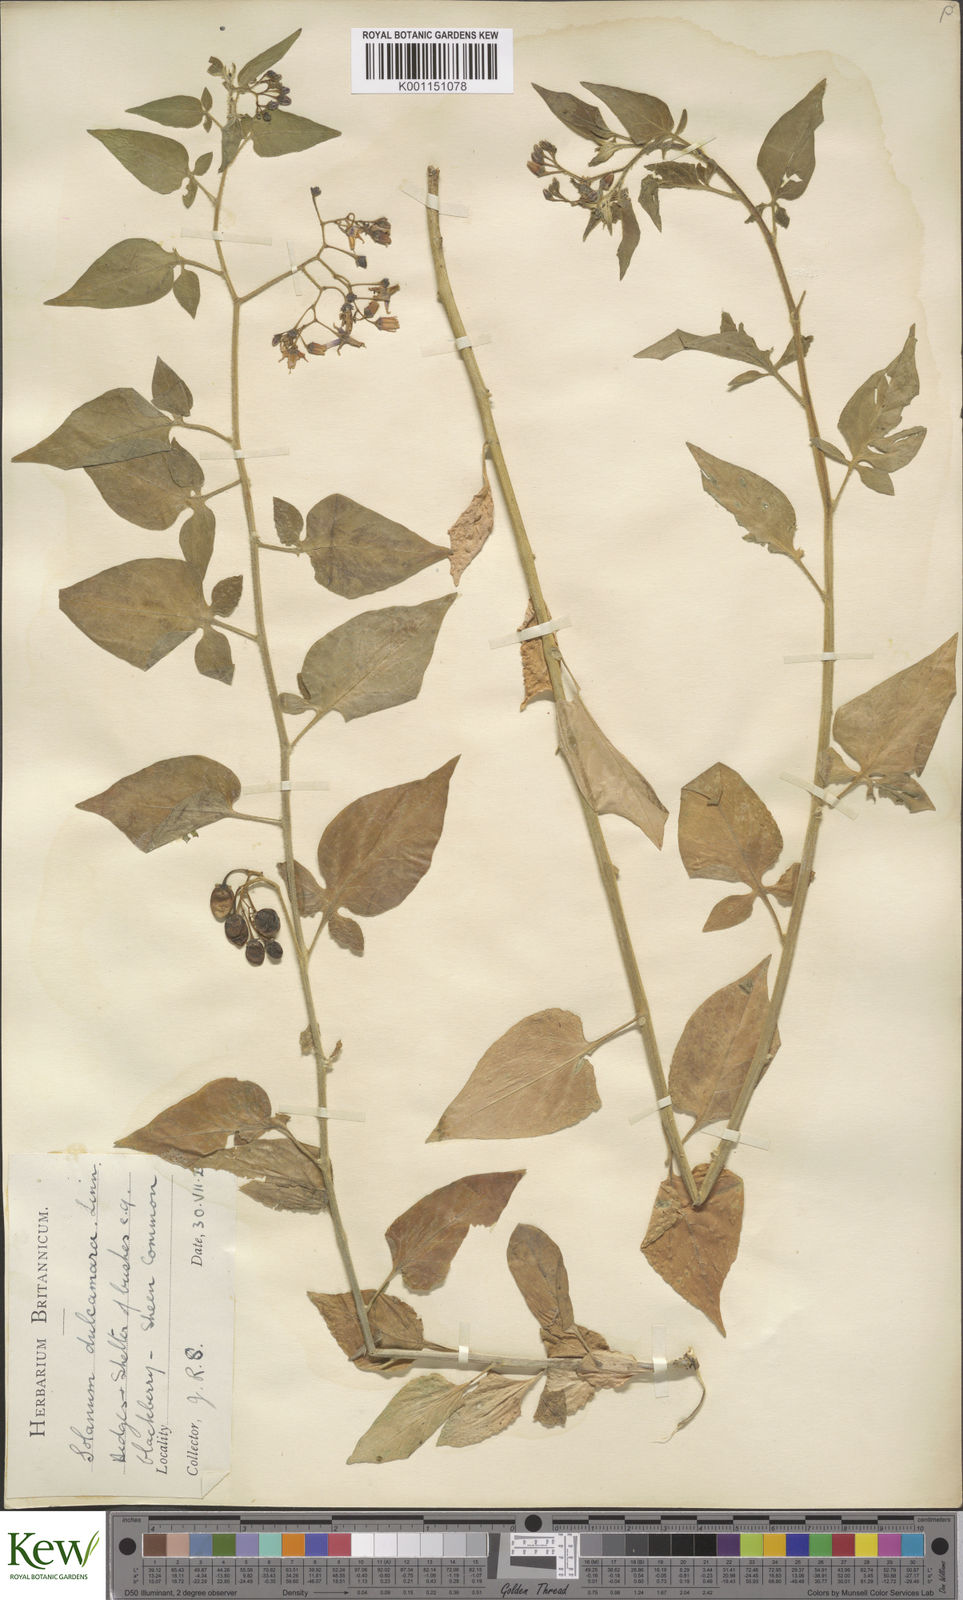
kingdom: Plantae
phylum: Tracheophyta
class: Magnoliopsida
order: Solanales
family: Solanaceae
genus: Solanum
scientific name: Solanum dulcamara
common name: Climbing nightshade
